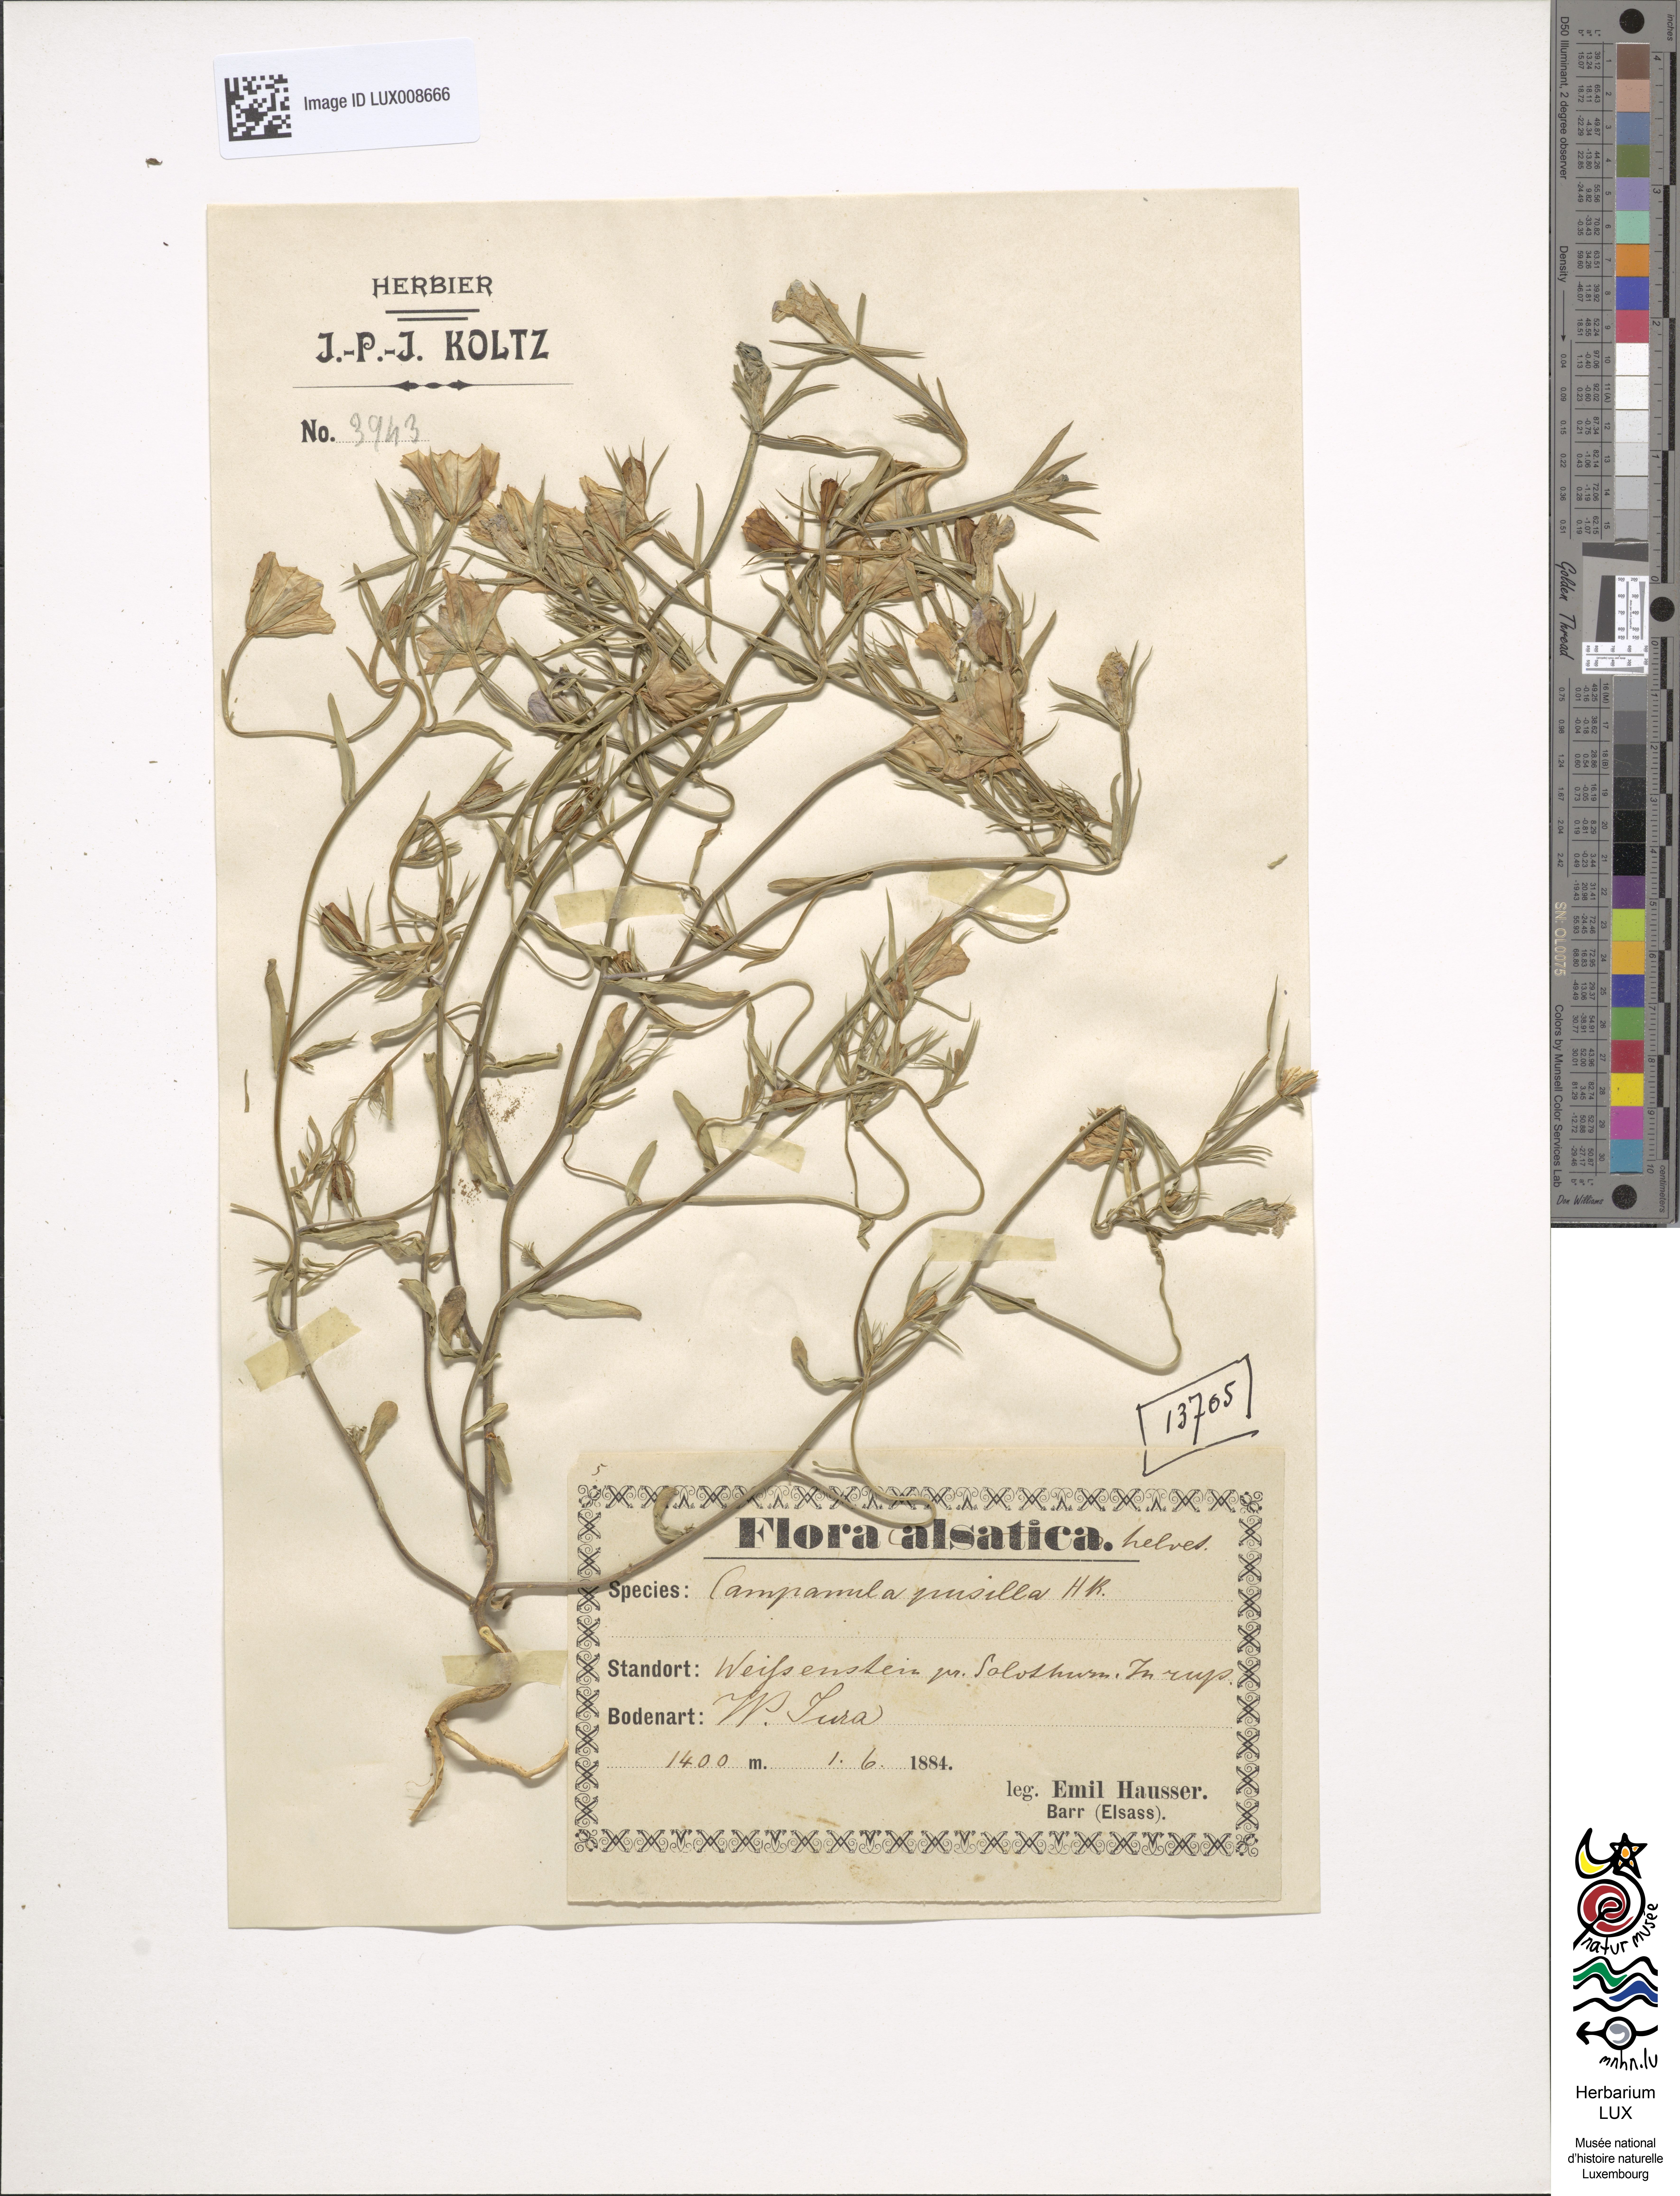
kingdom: Plantae
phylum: Tracheophyta
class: Magnoliopsida
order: Asterales
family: Campanulaceae
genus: Campanula
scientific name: Campanula cochleariifolia
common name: Fairies'-thimbles
